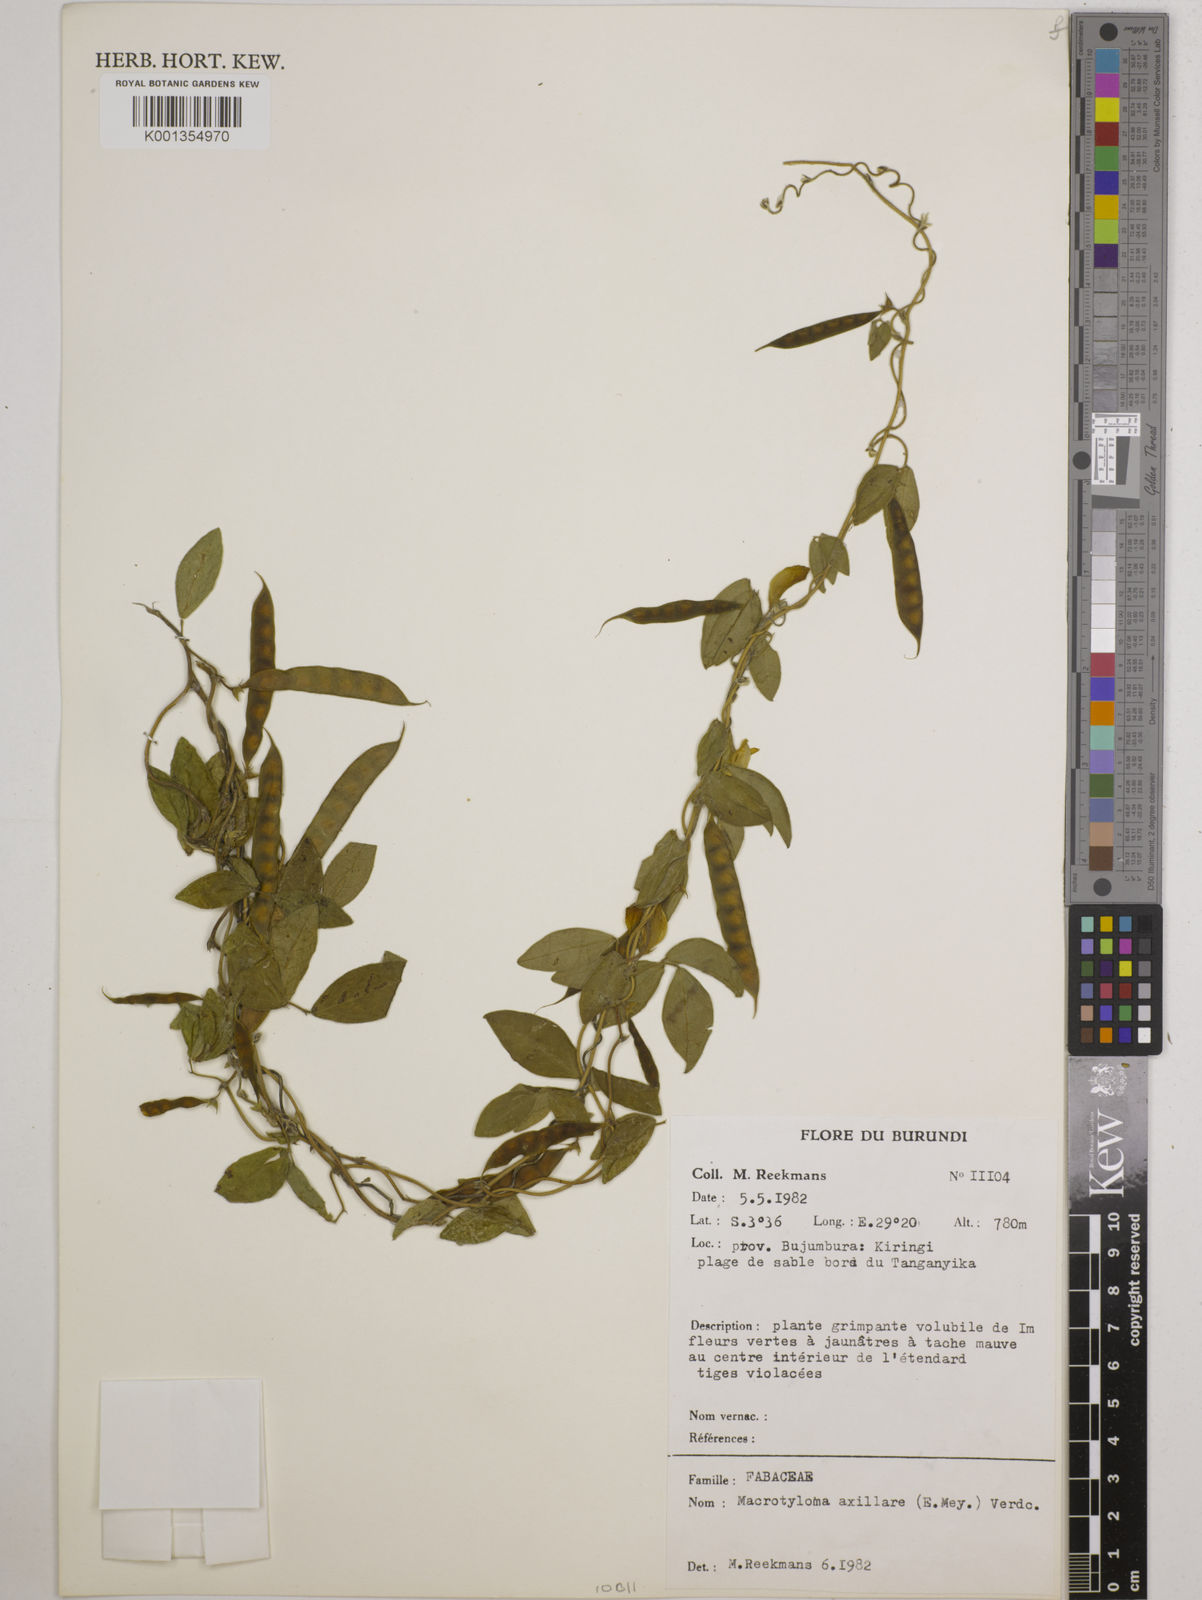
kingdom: Plantae
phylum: Tracheophyta
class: Magnoliopsida
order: Fabales
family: Fabaceae
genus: Macrotyloma
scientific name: Macrotyloma axillare
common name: Perennial horsegram
